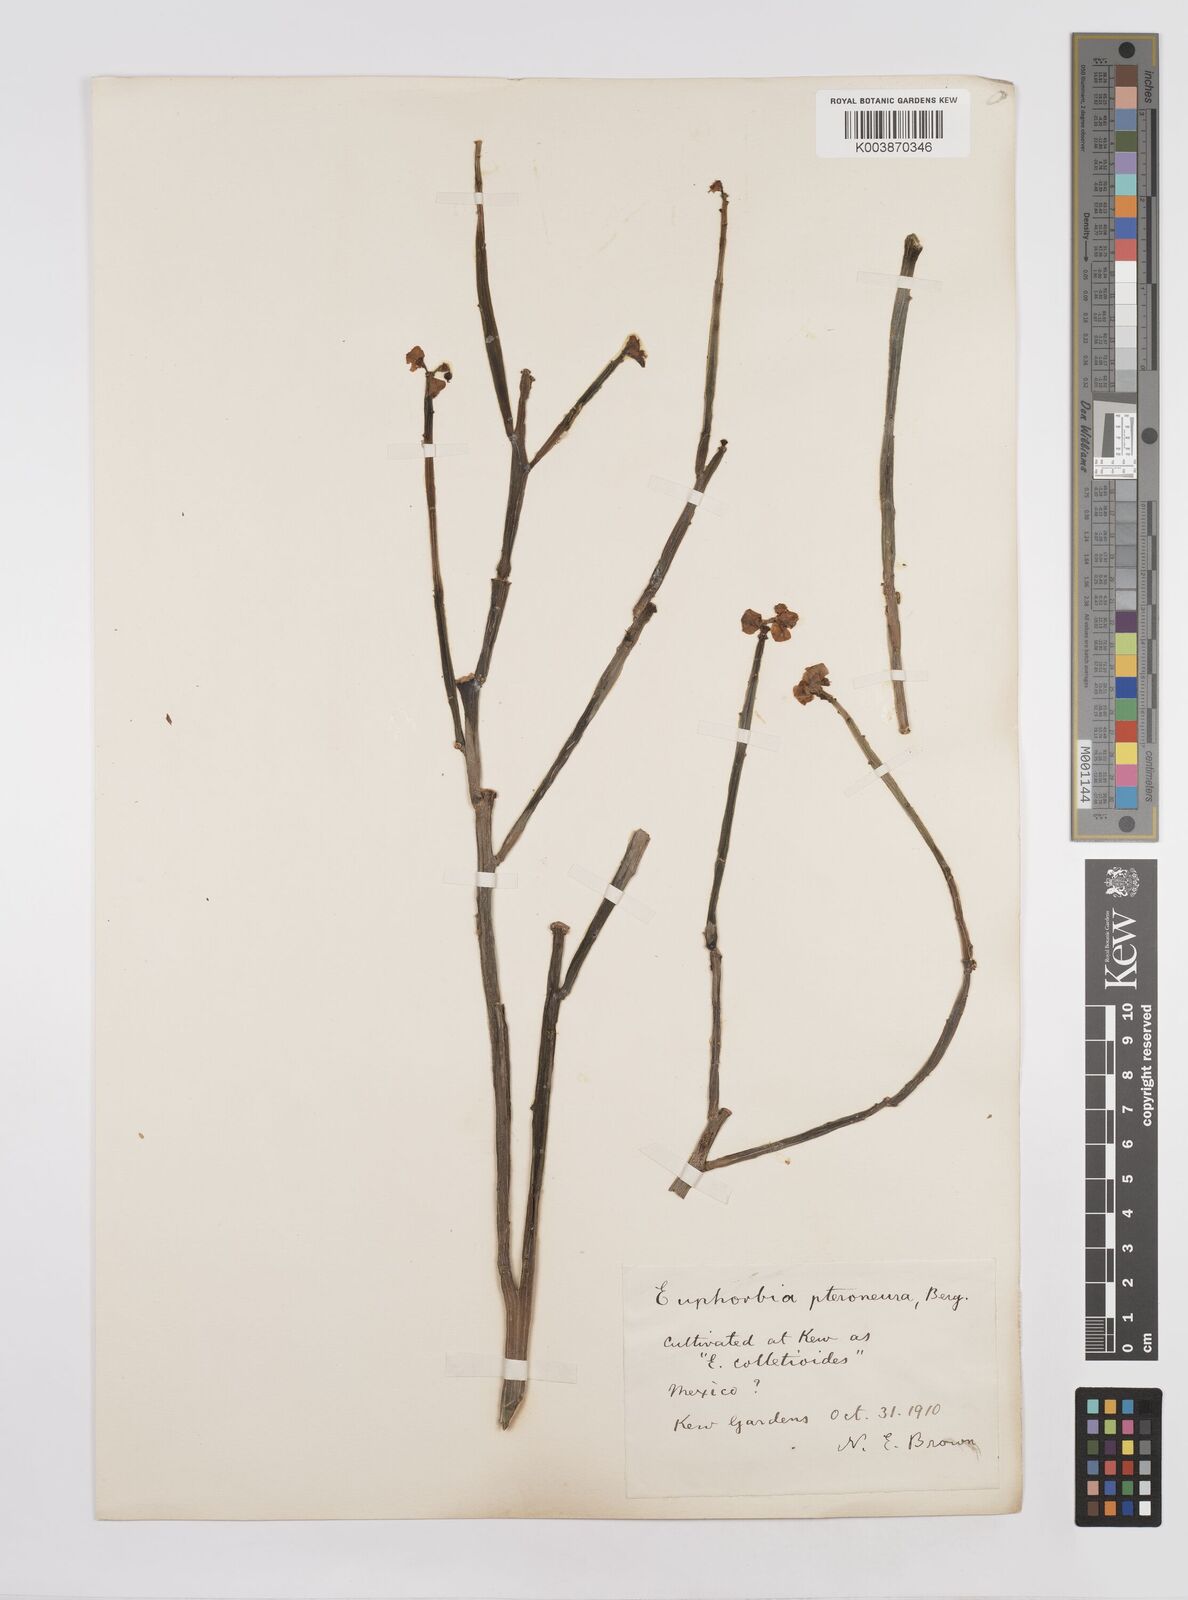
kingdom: Plantae
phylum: Tracheophyta
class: Magnoliopsida
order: Malpighiales
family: Euphorbiaceae
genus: Euphorbia
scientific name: Euphorbia pteroneura
